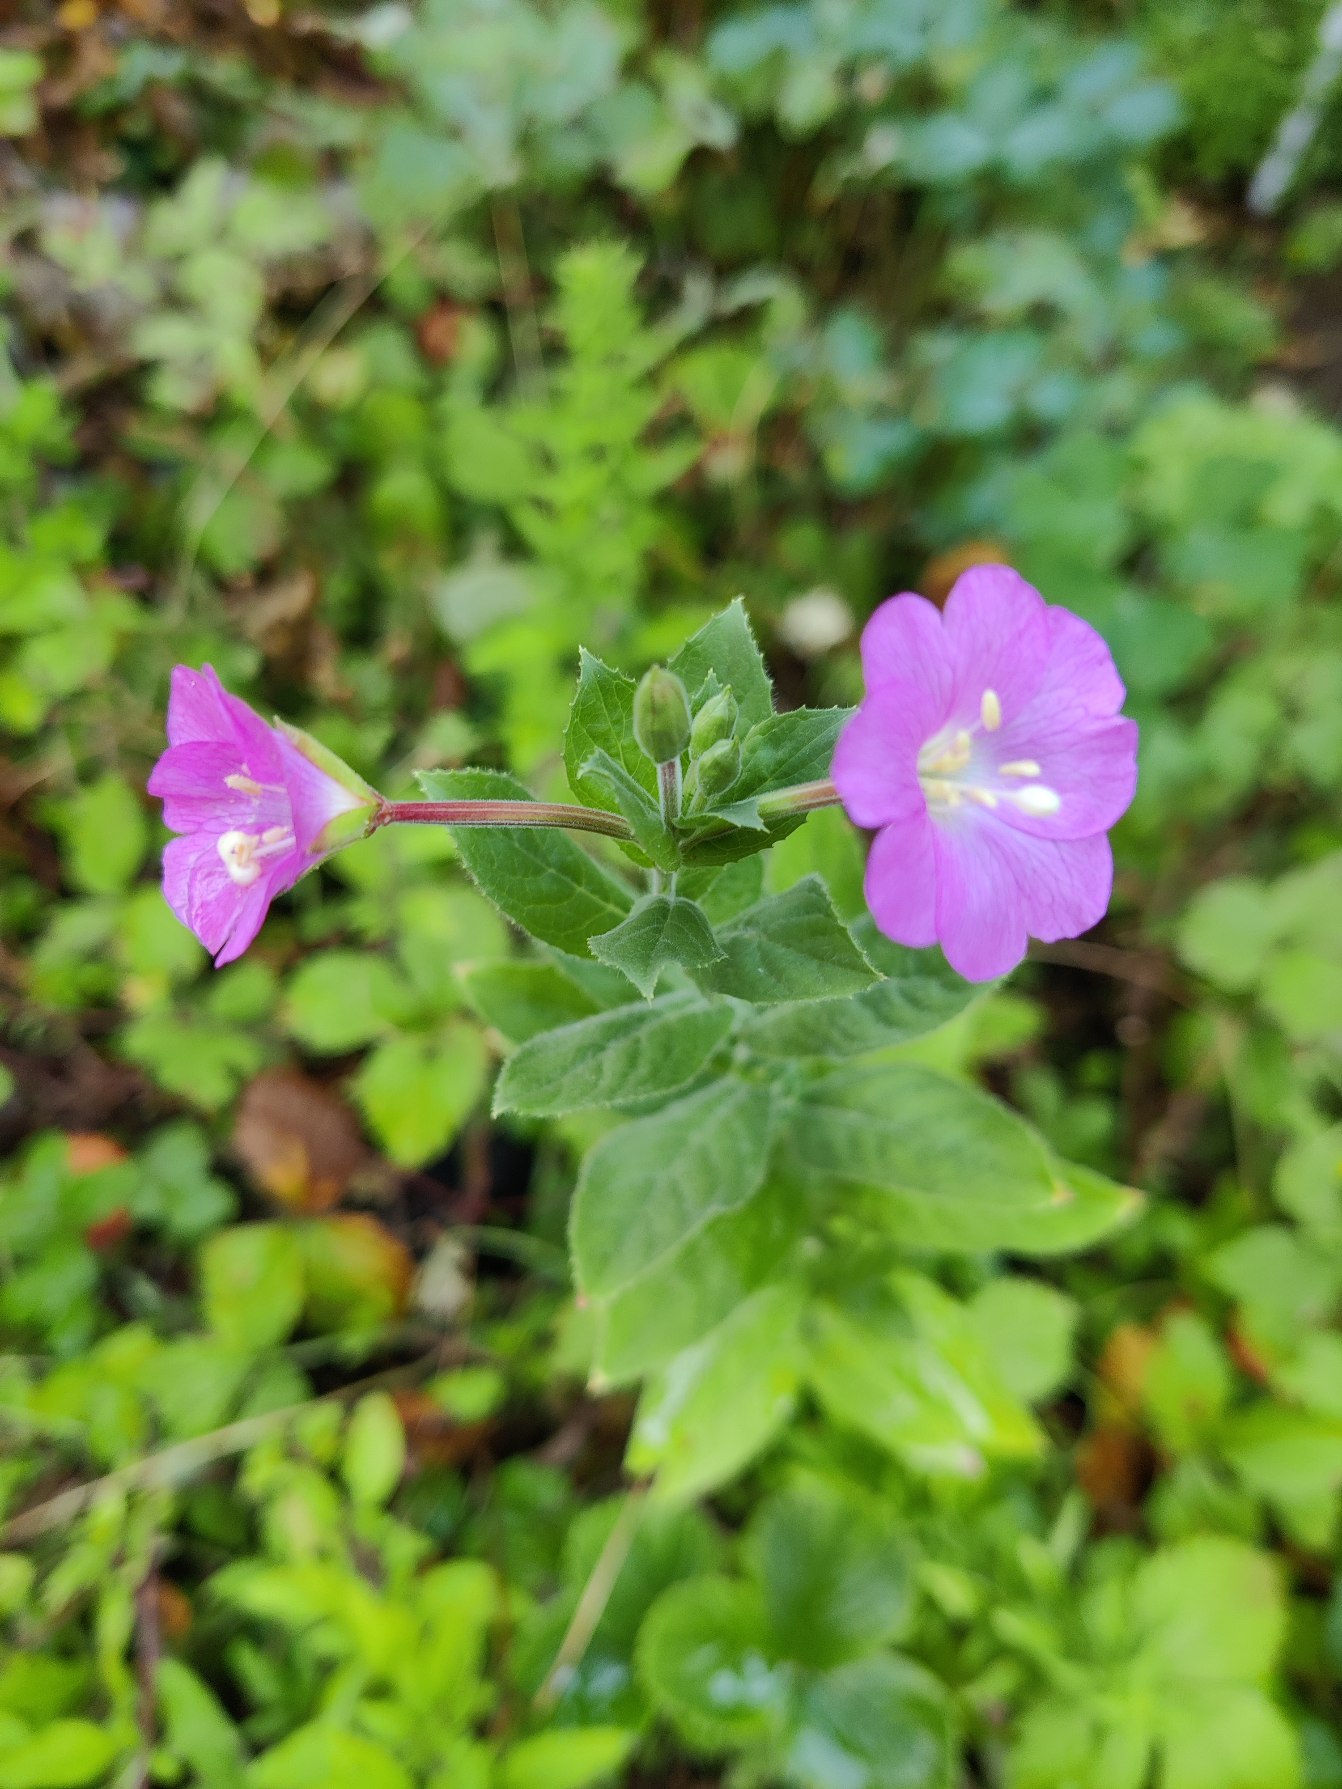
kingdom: Plantae
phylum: Tracheophyta
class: Magnoliopsida
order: Myrtales
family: Onagraceae
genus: Epilobium
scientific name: Epilobium hirsutum
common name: Lådden dueurt
